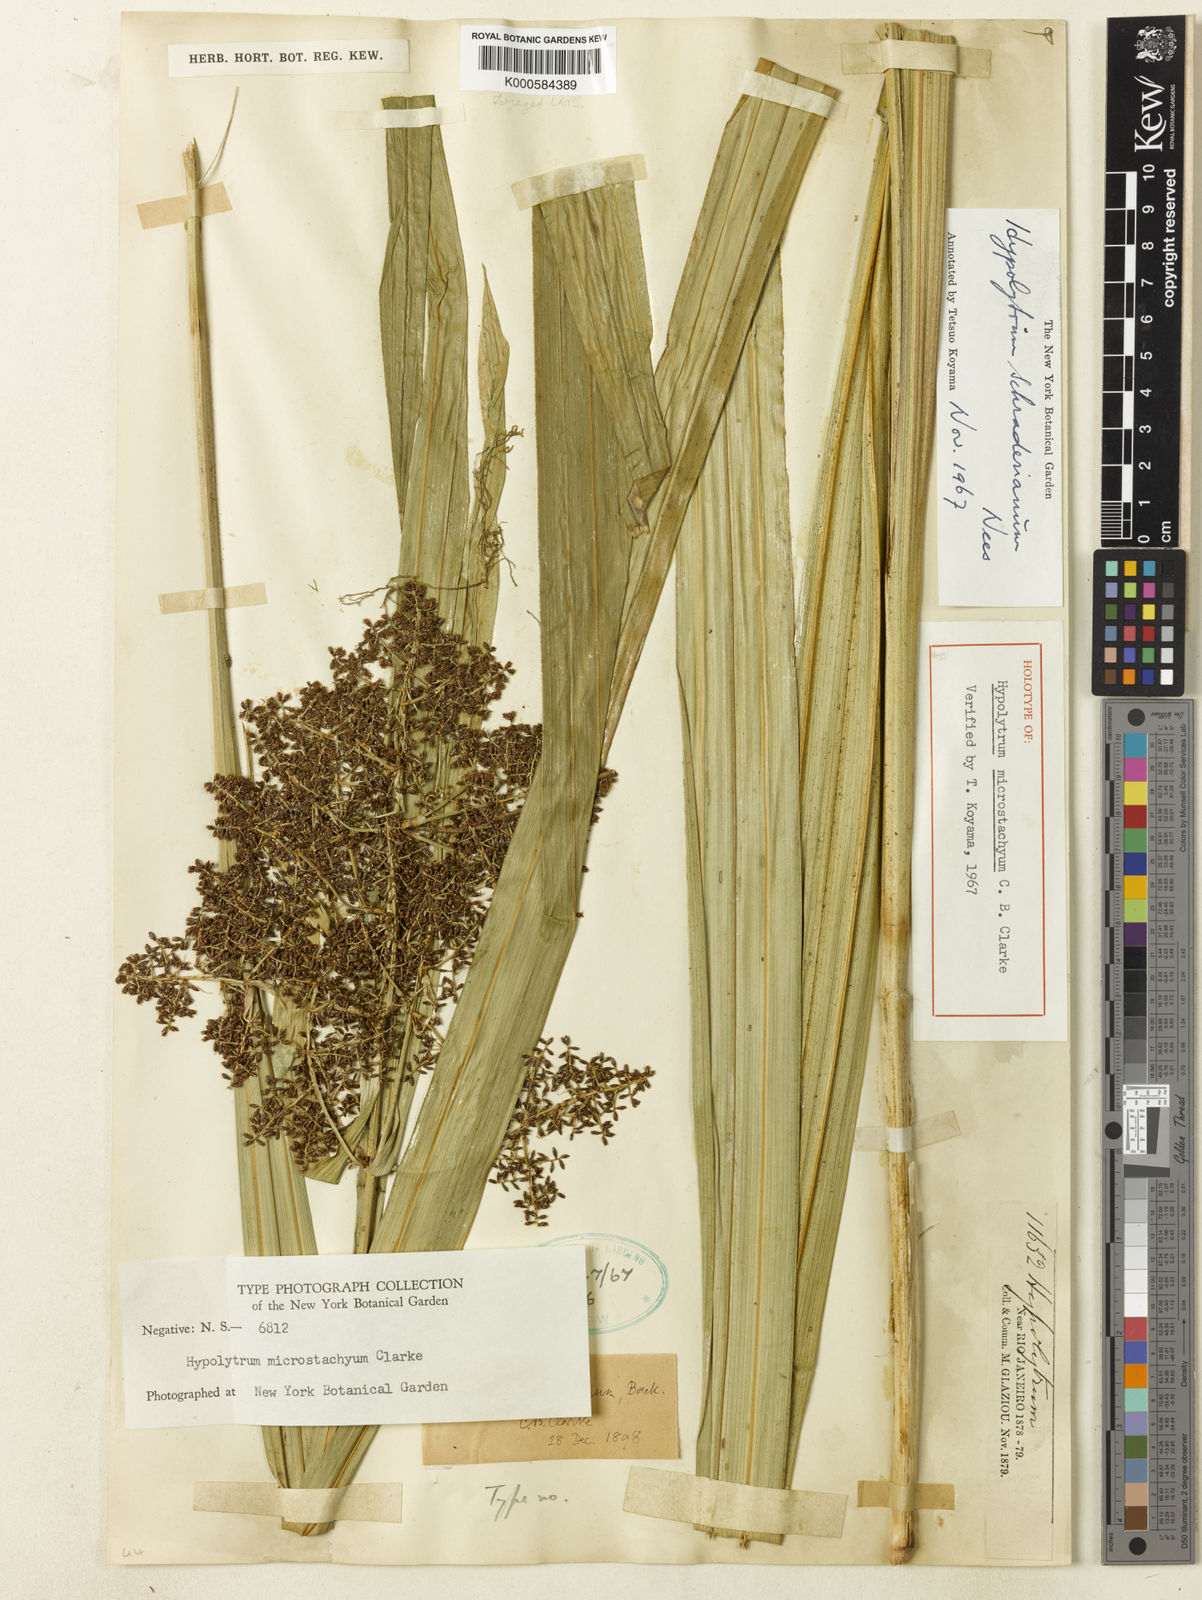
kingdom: Plantae
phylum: Tracheophyta
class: Liliopsida
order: Poales
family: Cyperaceae
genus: Hypolytrum
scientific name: Hypolytrum schraderianum
